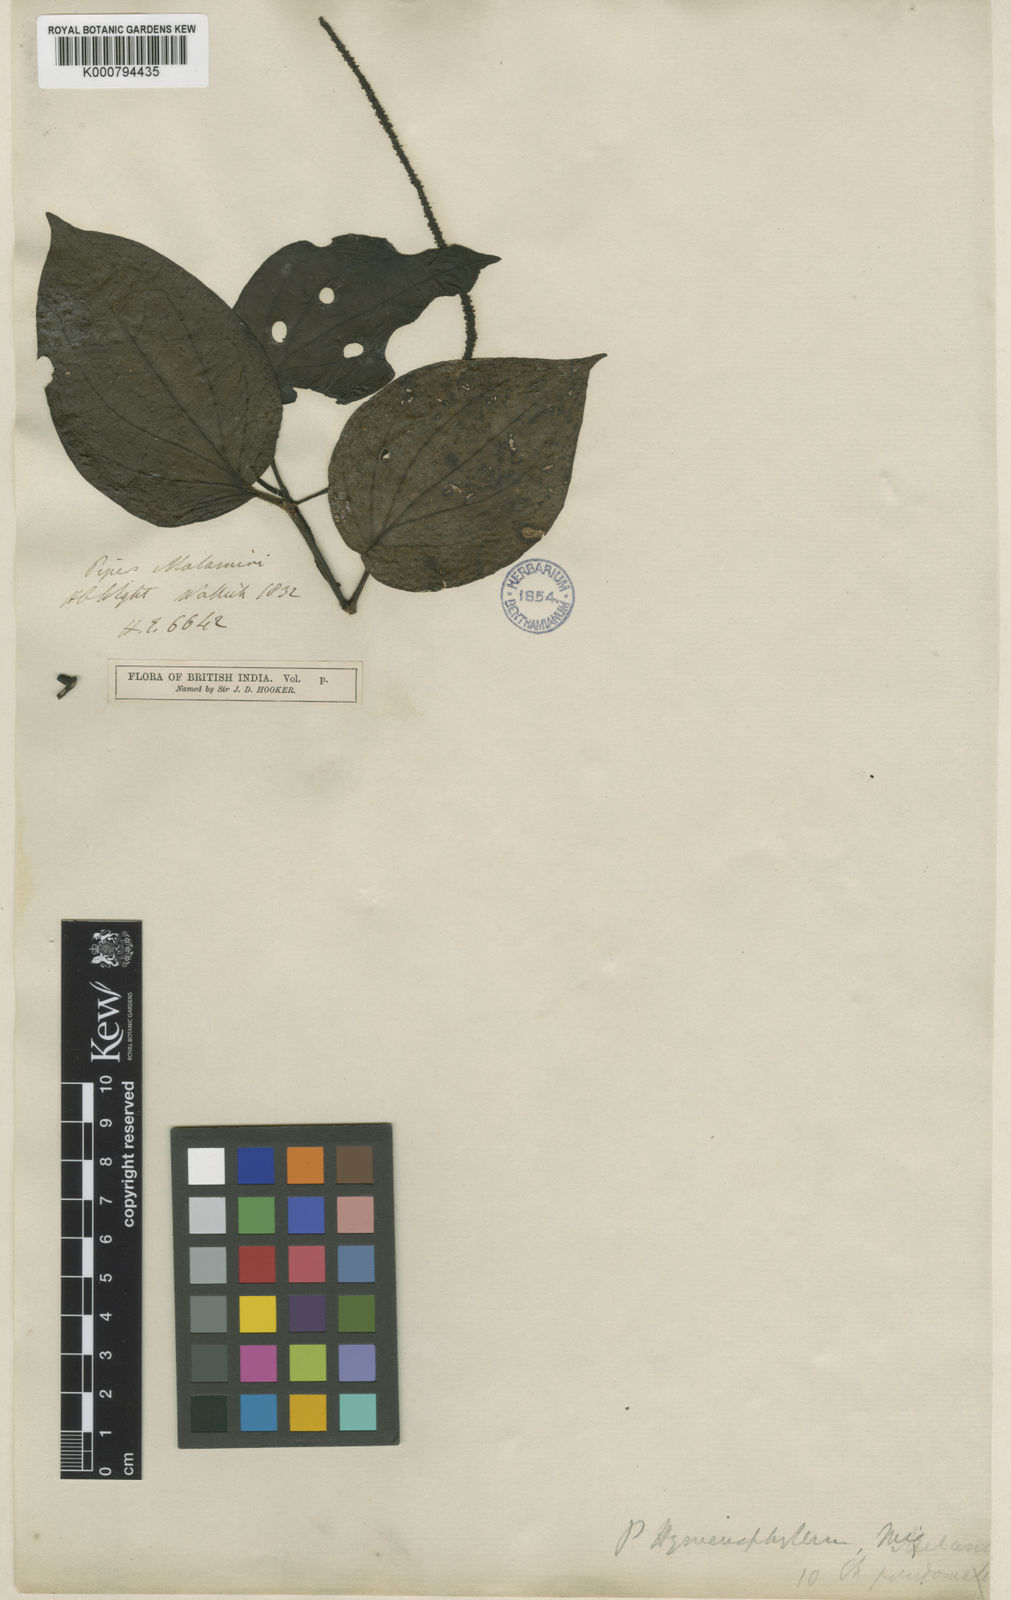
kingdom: Plantae
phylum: Tracheophyta
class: Magnoliopsida
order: Piperales
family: Piperaceae
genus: Piper
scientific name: Piper
